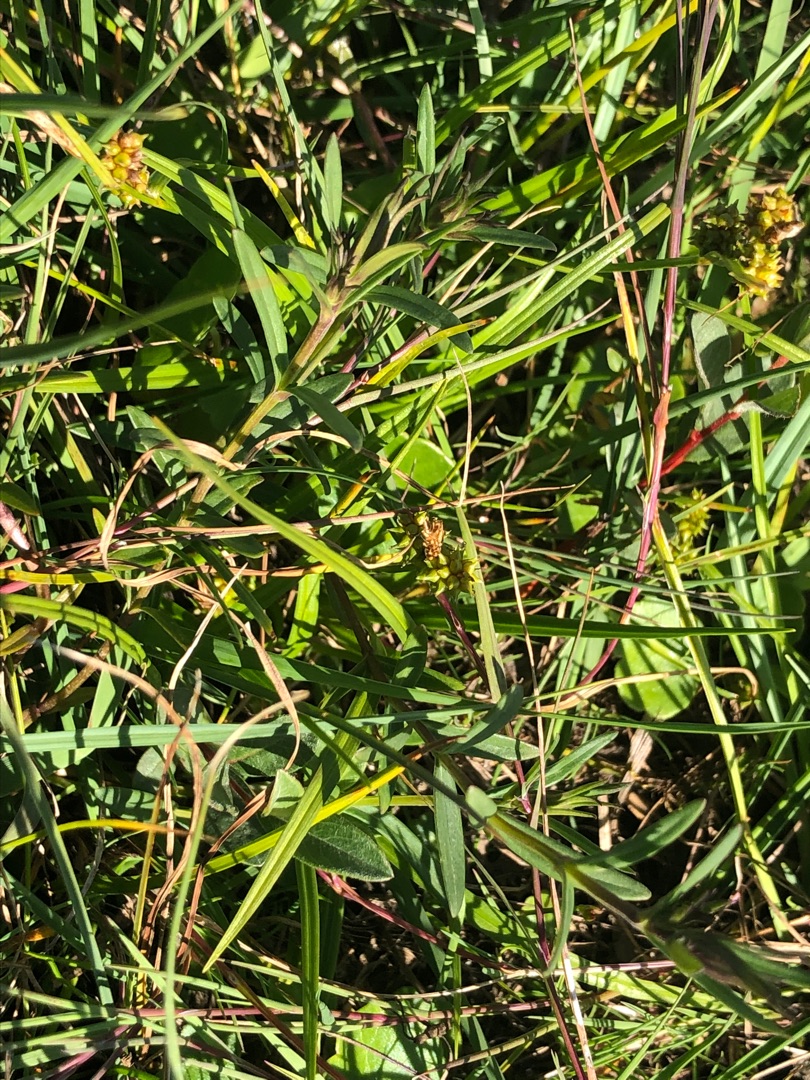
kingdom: Plantae
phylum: Tracheophyta
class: Magnoliopsida
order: Gentianales
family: Gentianaceae
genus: Gentiana
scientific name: Gentiana pneumonanthe
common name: Klokke-ensian
